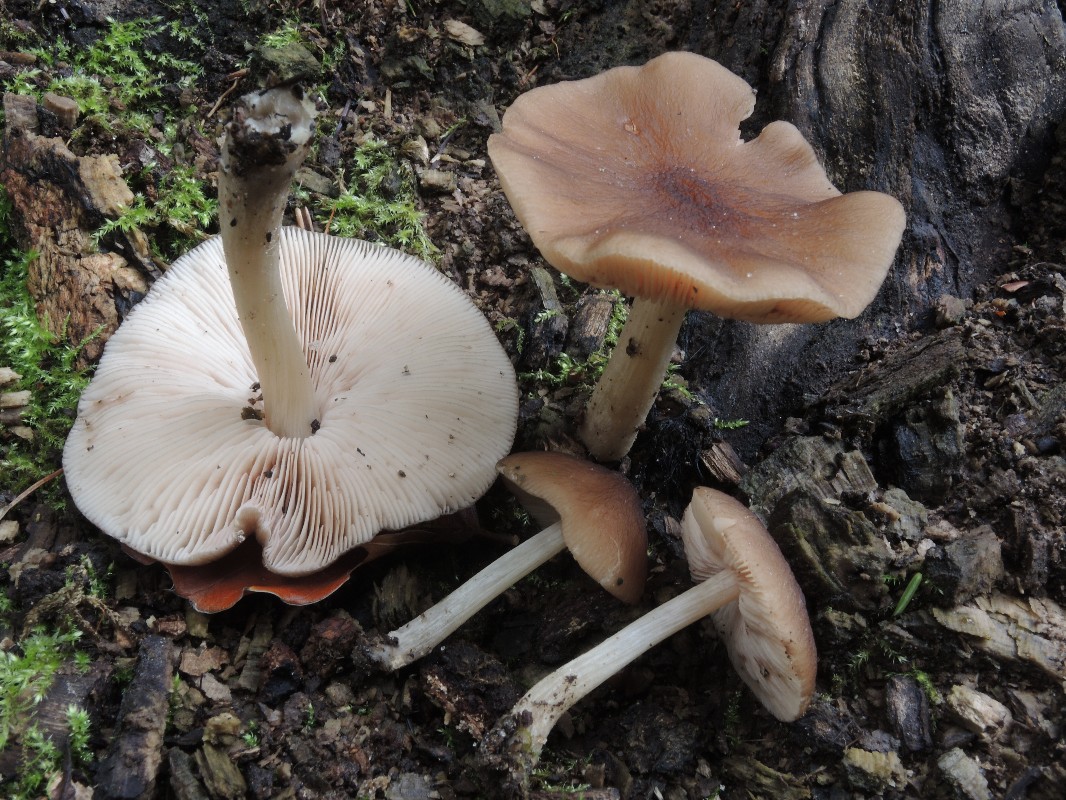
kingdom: Fungi
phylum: Basidiomycota
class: Agaricomycetes
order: Agaricales
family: Pluteaceae
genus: Pluteus
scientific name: Pluteus phlebophorus
